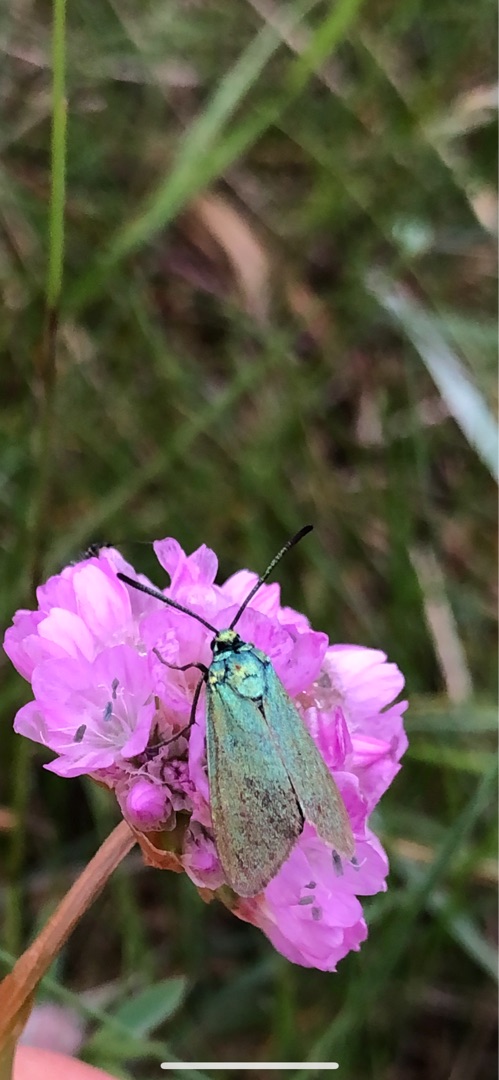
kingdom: Animalia
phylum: Arthropoda
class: Insecta
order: Lepidoptera
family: Zygaenidae
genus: Adscita
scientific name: Adscita statices
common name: Metalvinge
